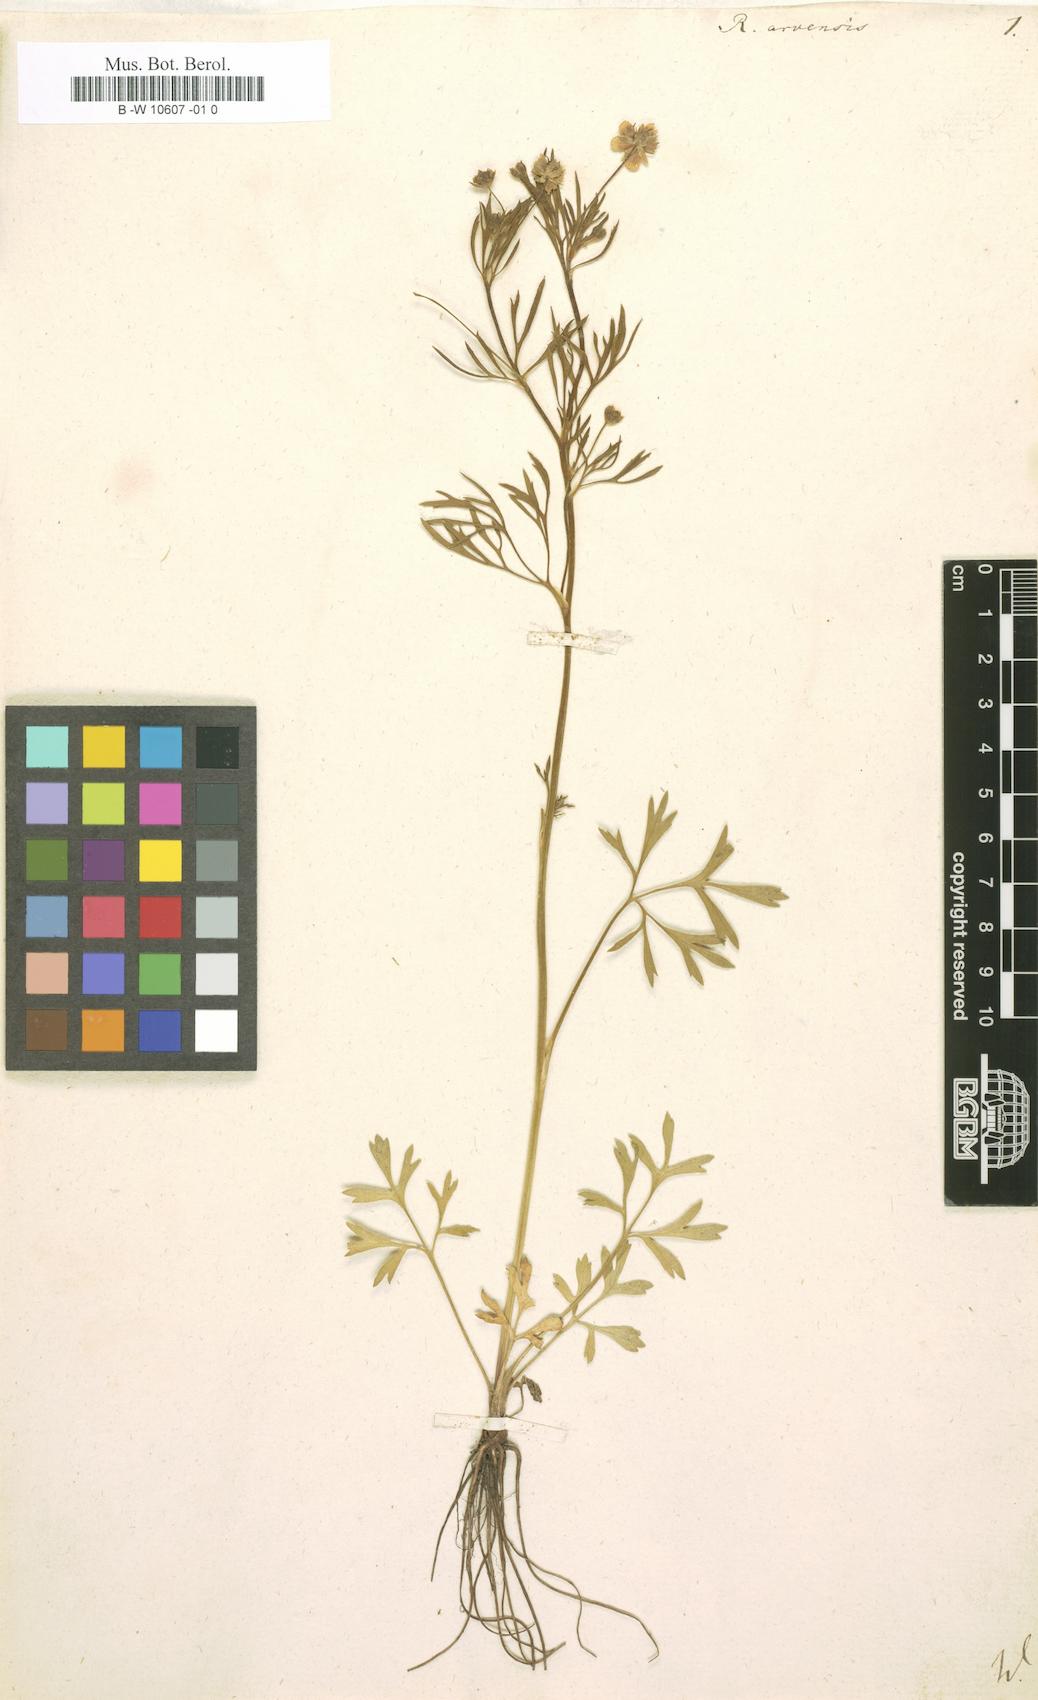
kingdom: Plantae
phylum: Tracheophyta
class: Magnoliopsida
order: Ranunculales
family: Ranunculaceae
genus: Ranunculus
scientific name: Ranunculus arvensis
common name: Corn buttercup
